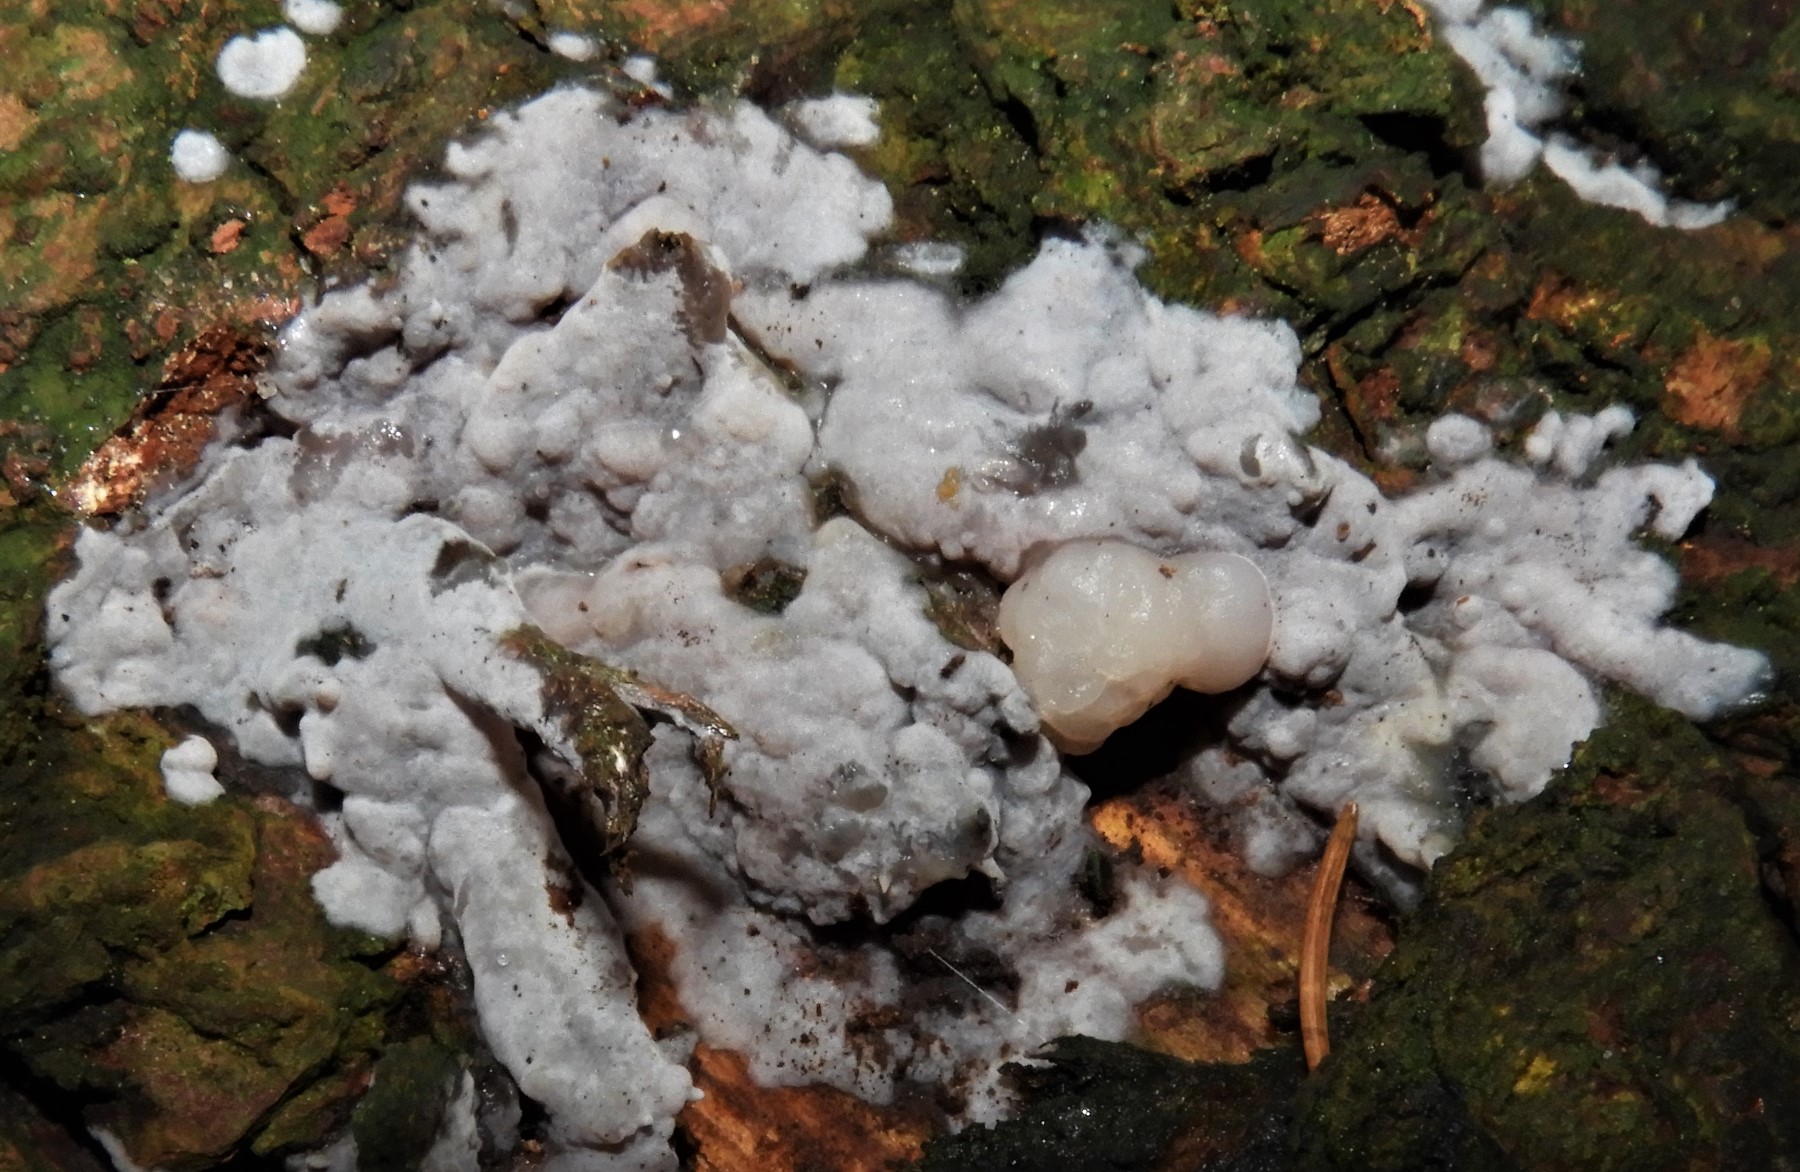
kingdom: Fungi
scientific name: Fungi
